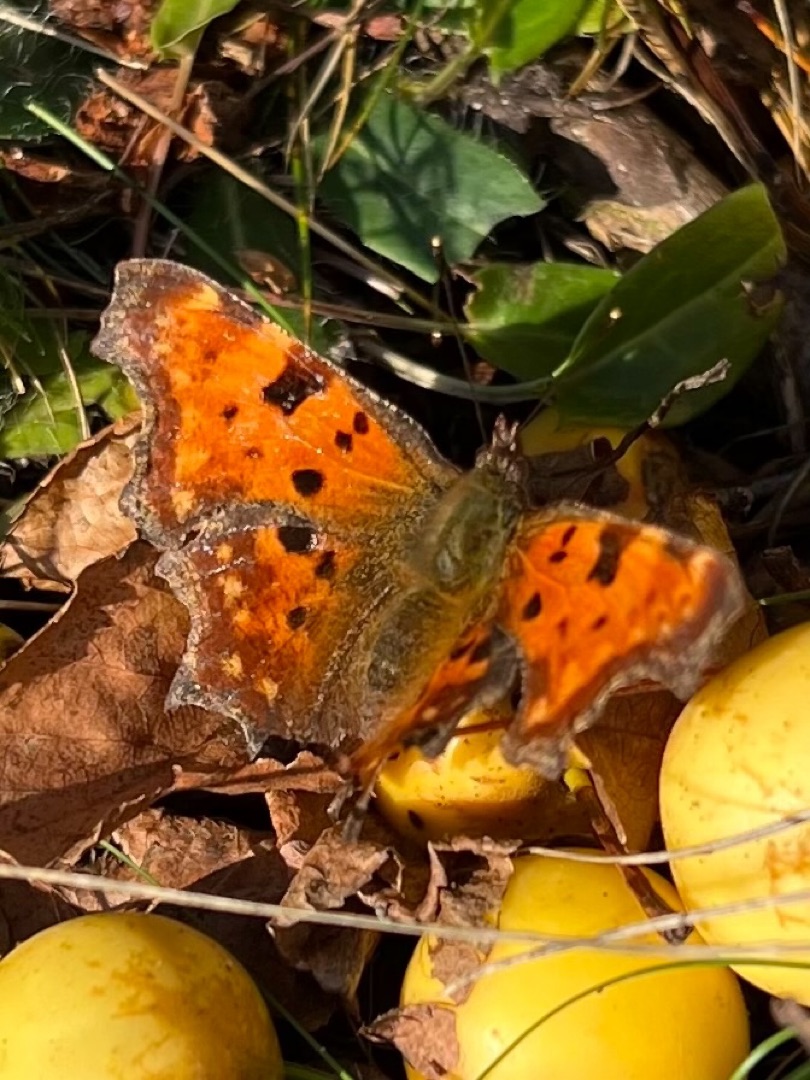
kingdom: Animalia
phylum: Arthropoda
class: Insecta
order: Lepidoptera
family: Nymphalidae
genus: Polygonia
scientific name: Polygonia c-album
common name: Det hvide C
